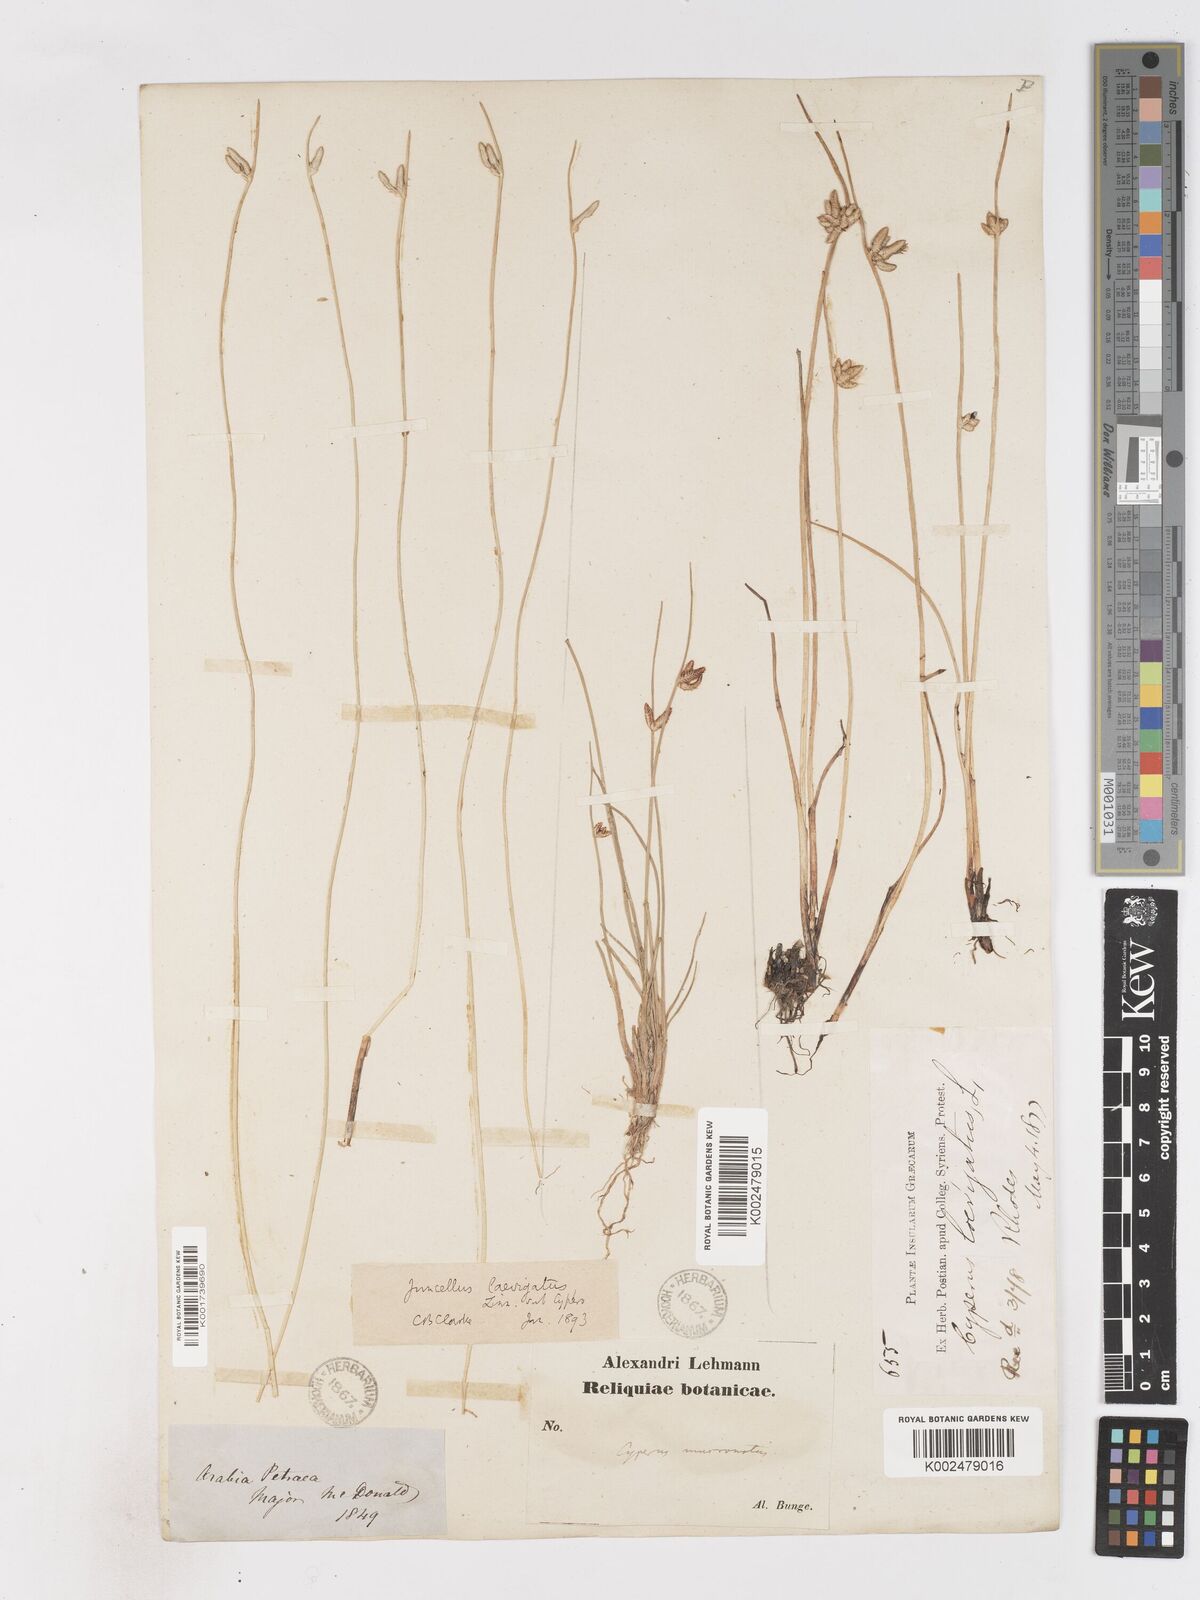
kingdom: Plantae
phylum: Tracheophyta
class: Liliopsida
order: Poales
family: Cyperaceae
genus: Cyperus
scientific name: Cyperus laevigatus
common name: Smooth flat sedge
